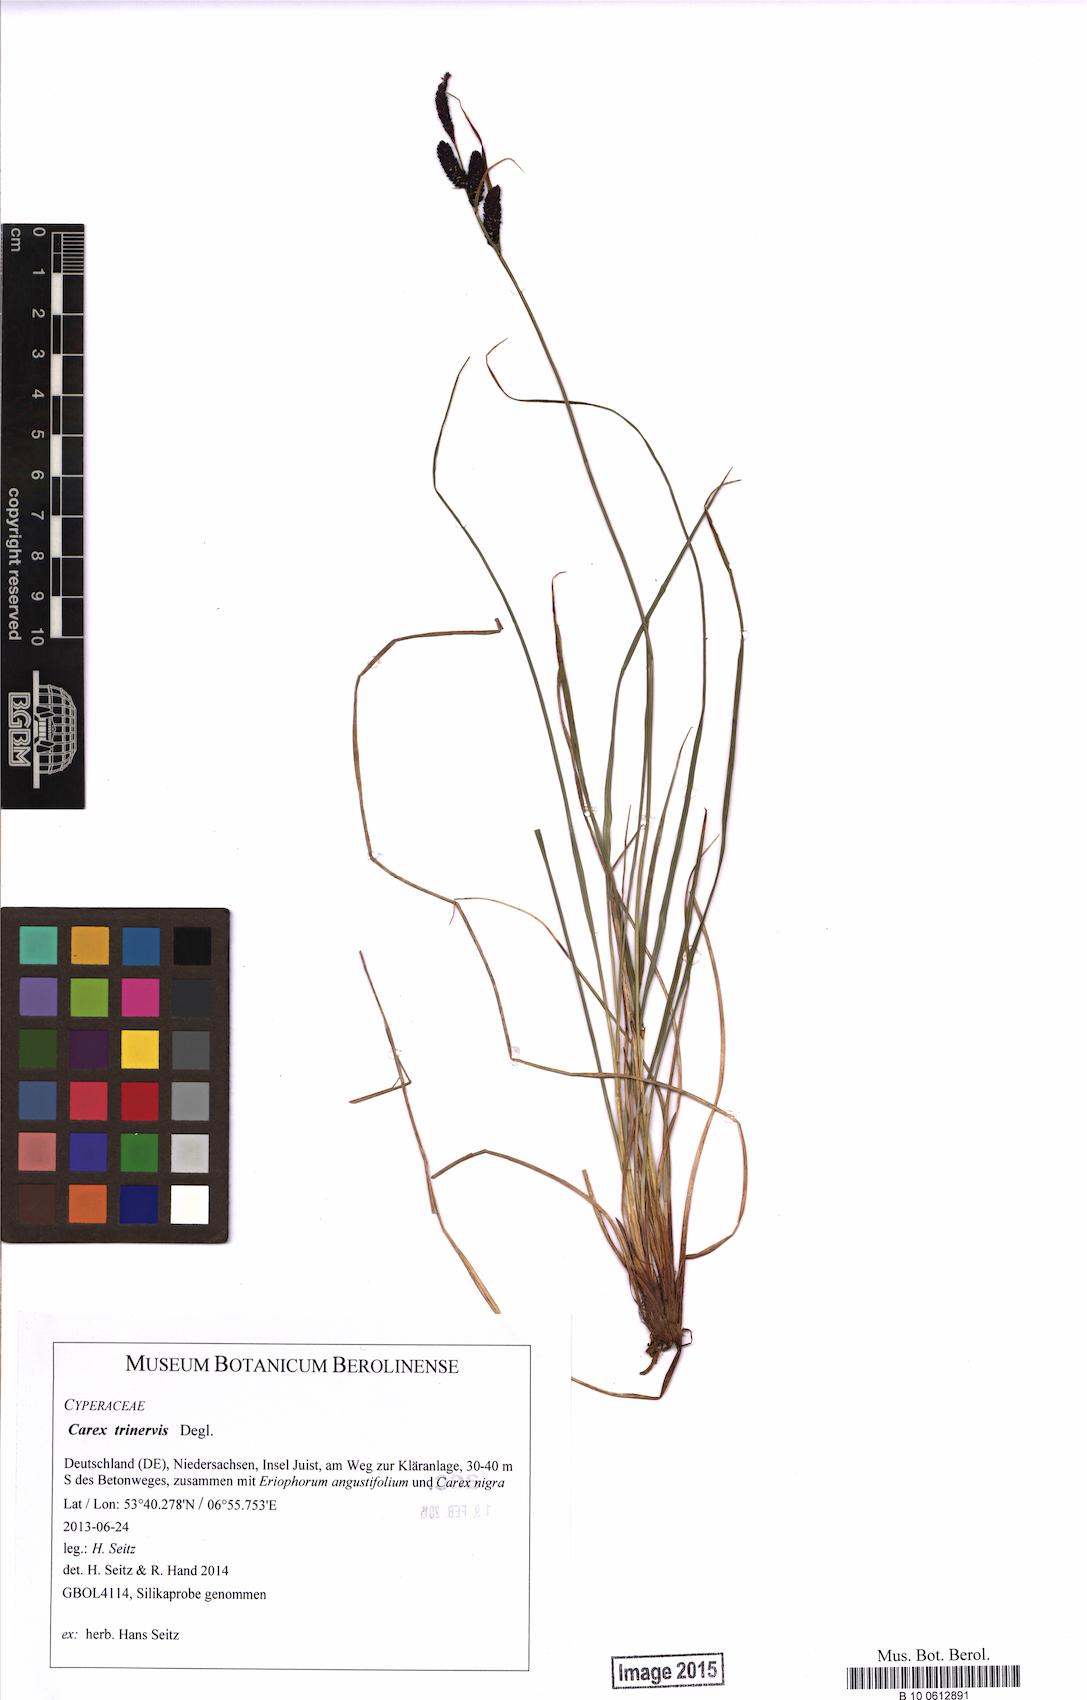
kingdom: Plantae
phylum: Tracheophyta
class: Liliopsida
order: Poales
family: Cyperaceae
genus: Carex
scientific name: Carex trinervis
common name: Three-nerved sedge
